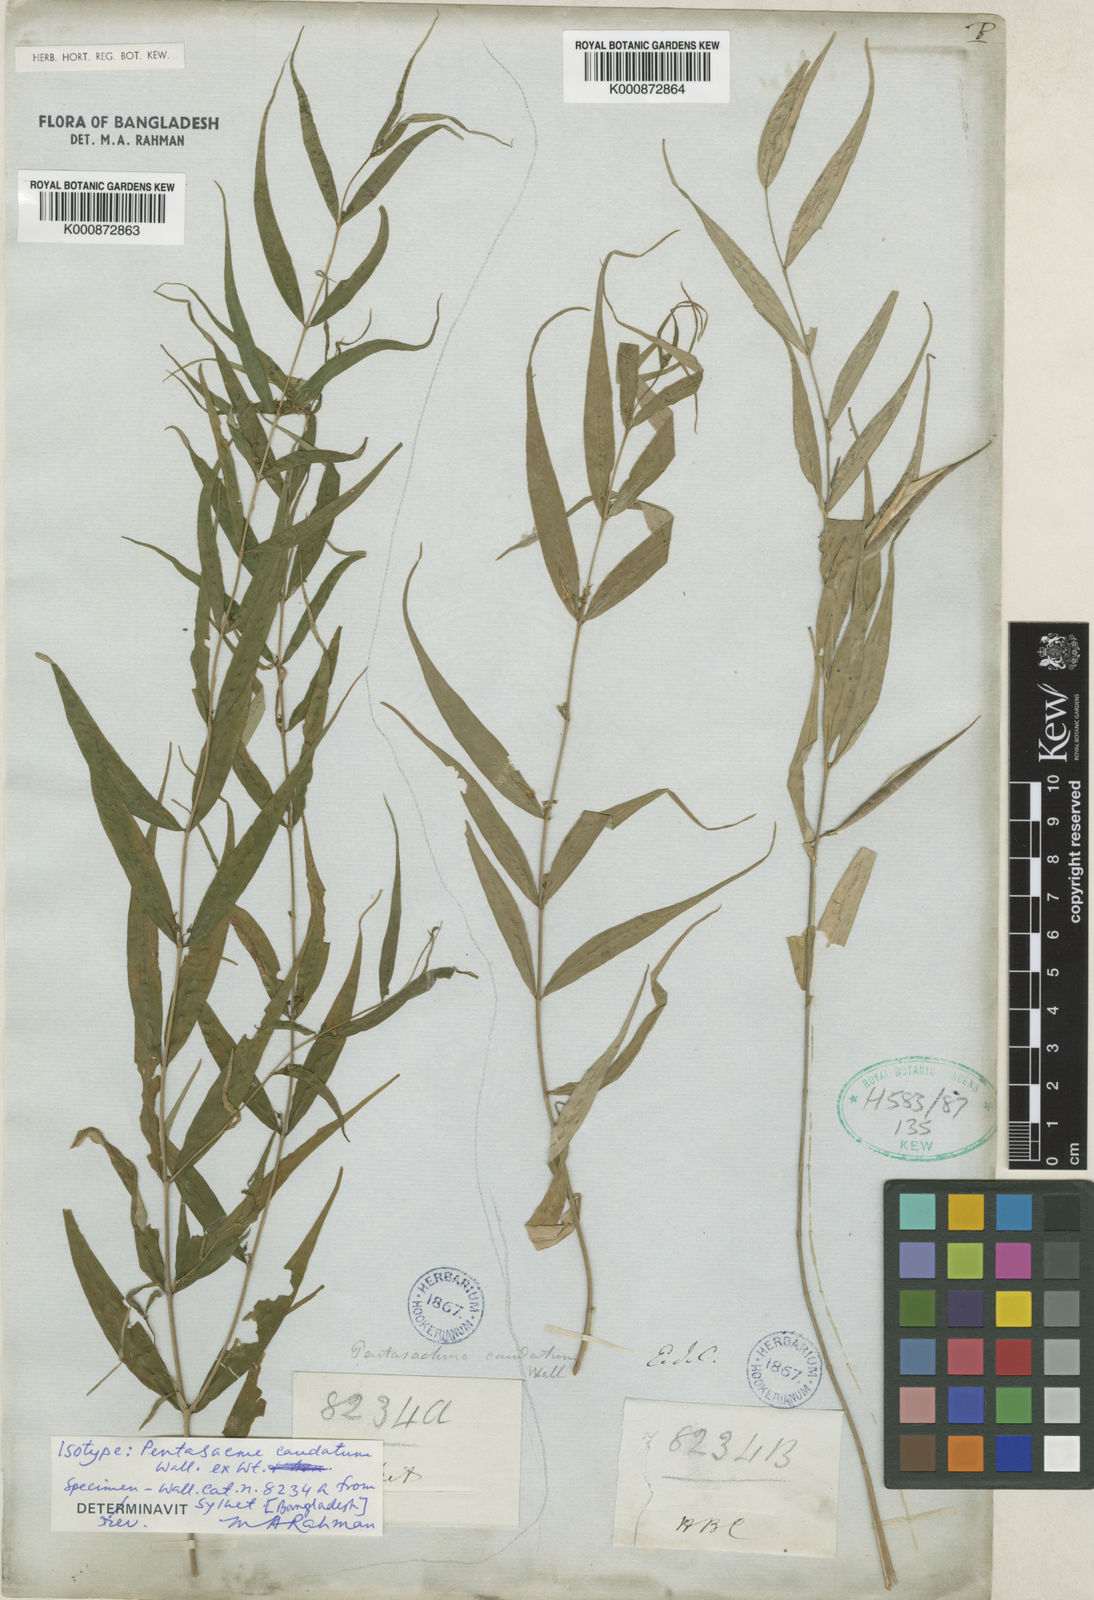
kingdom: Plantae
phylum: Tracheophyta
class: Magnoliopsida
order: Gentianales
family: Apocynaceae
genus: Pentasachme
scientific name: Pentasachme caudatum
